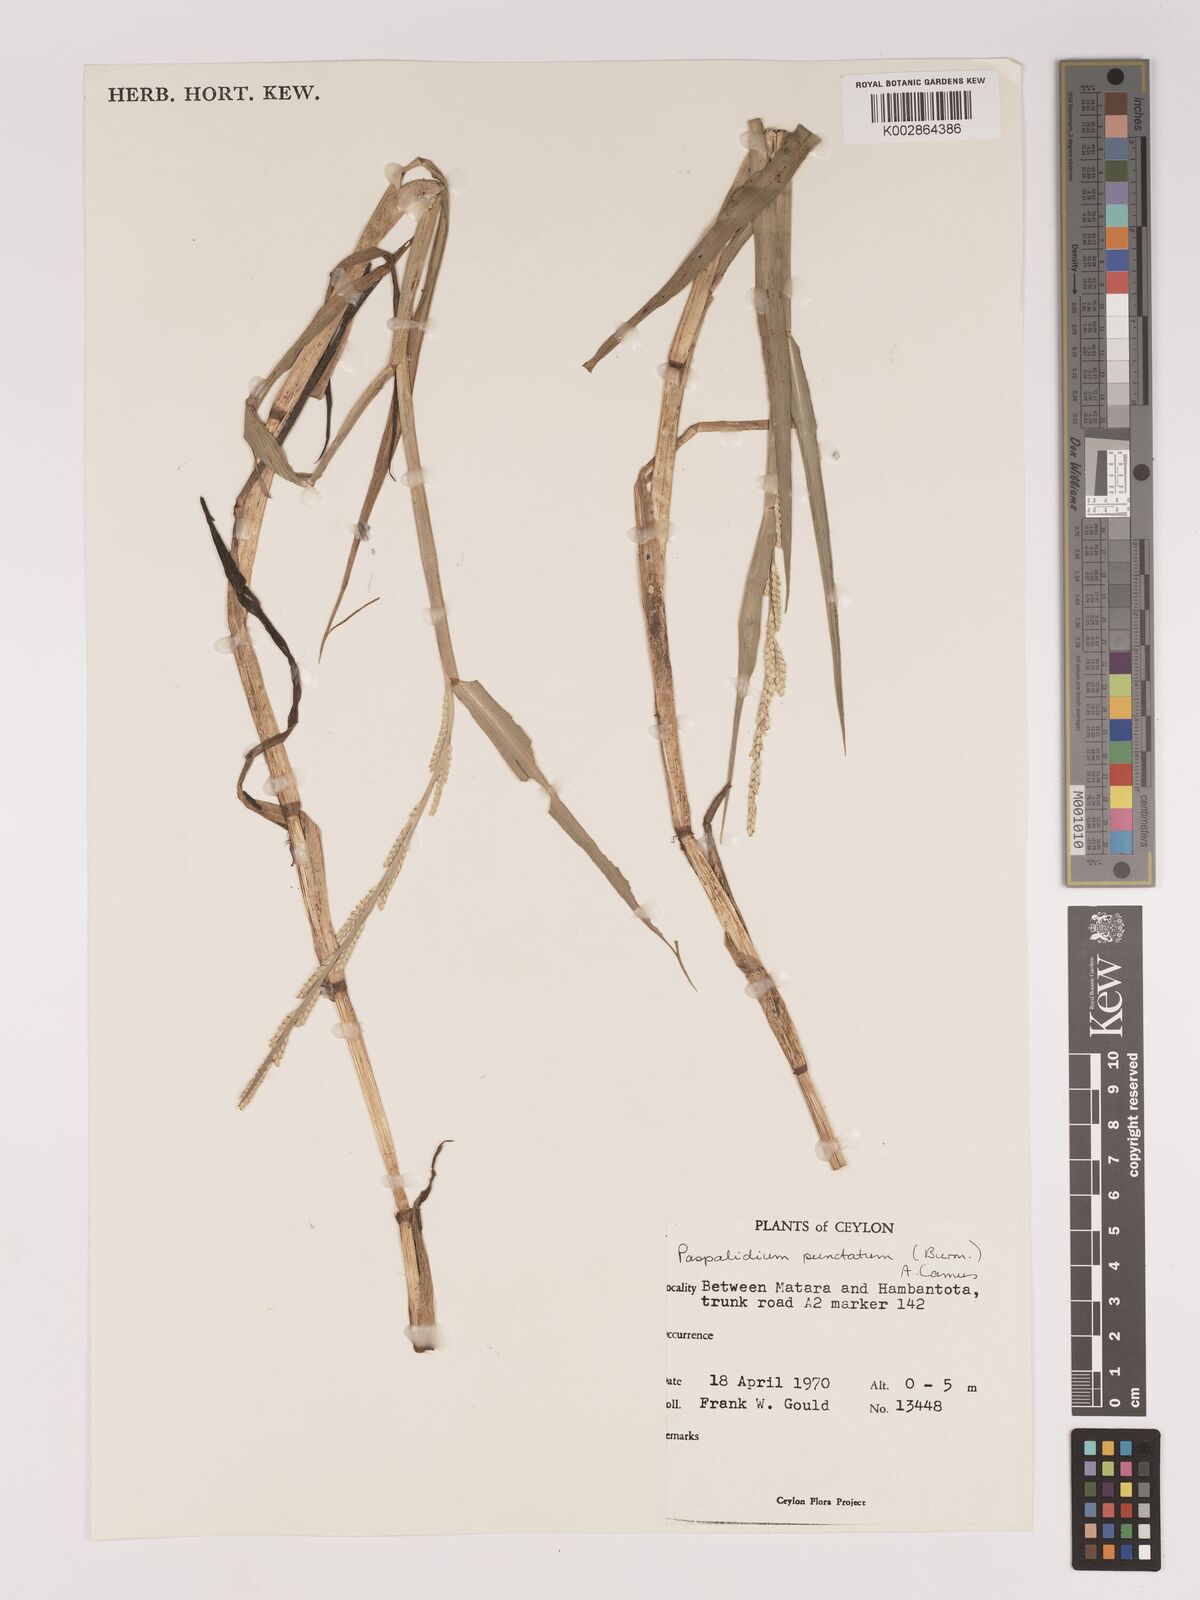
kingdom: Plantae
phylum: Tracheophyta
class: Liliopsida
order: Poales
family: Poaceae
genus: Setaria
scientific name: Setaria punctata
